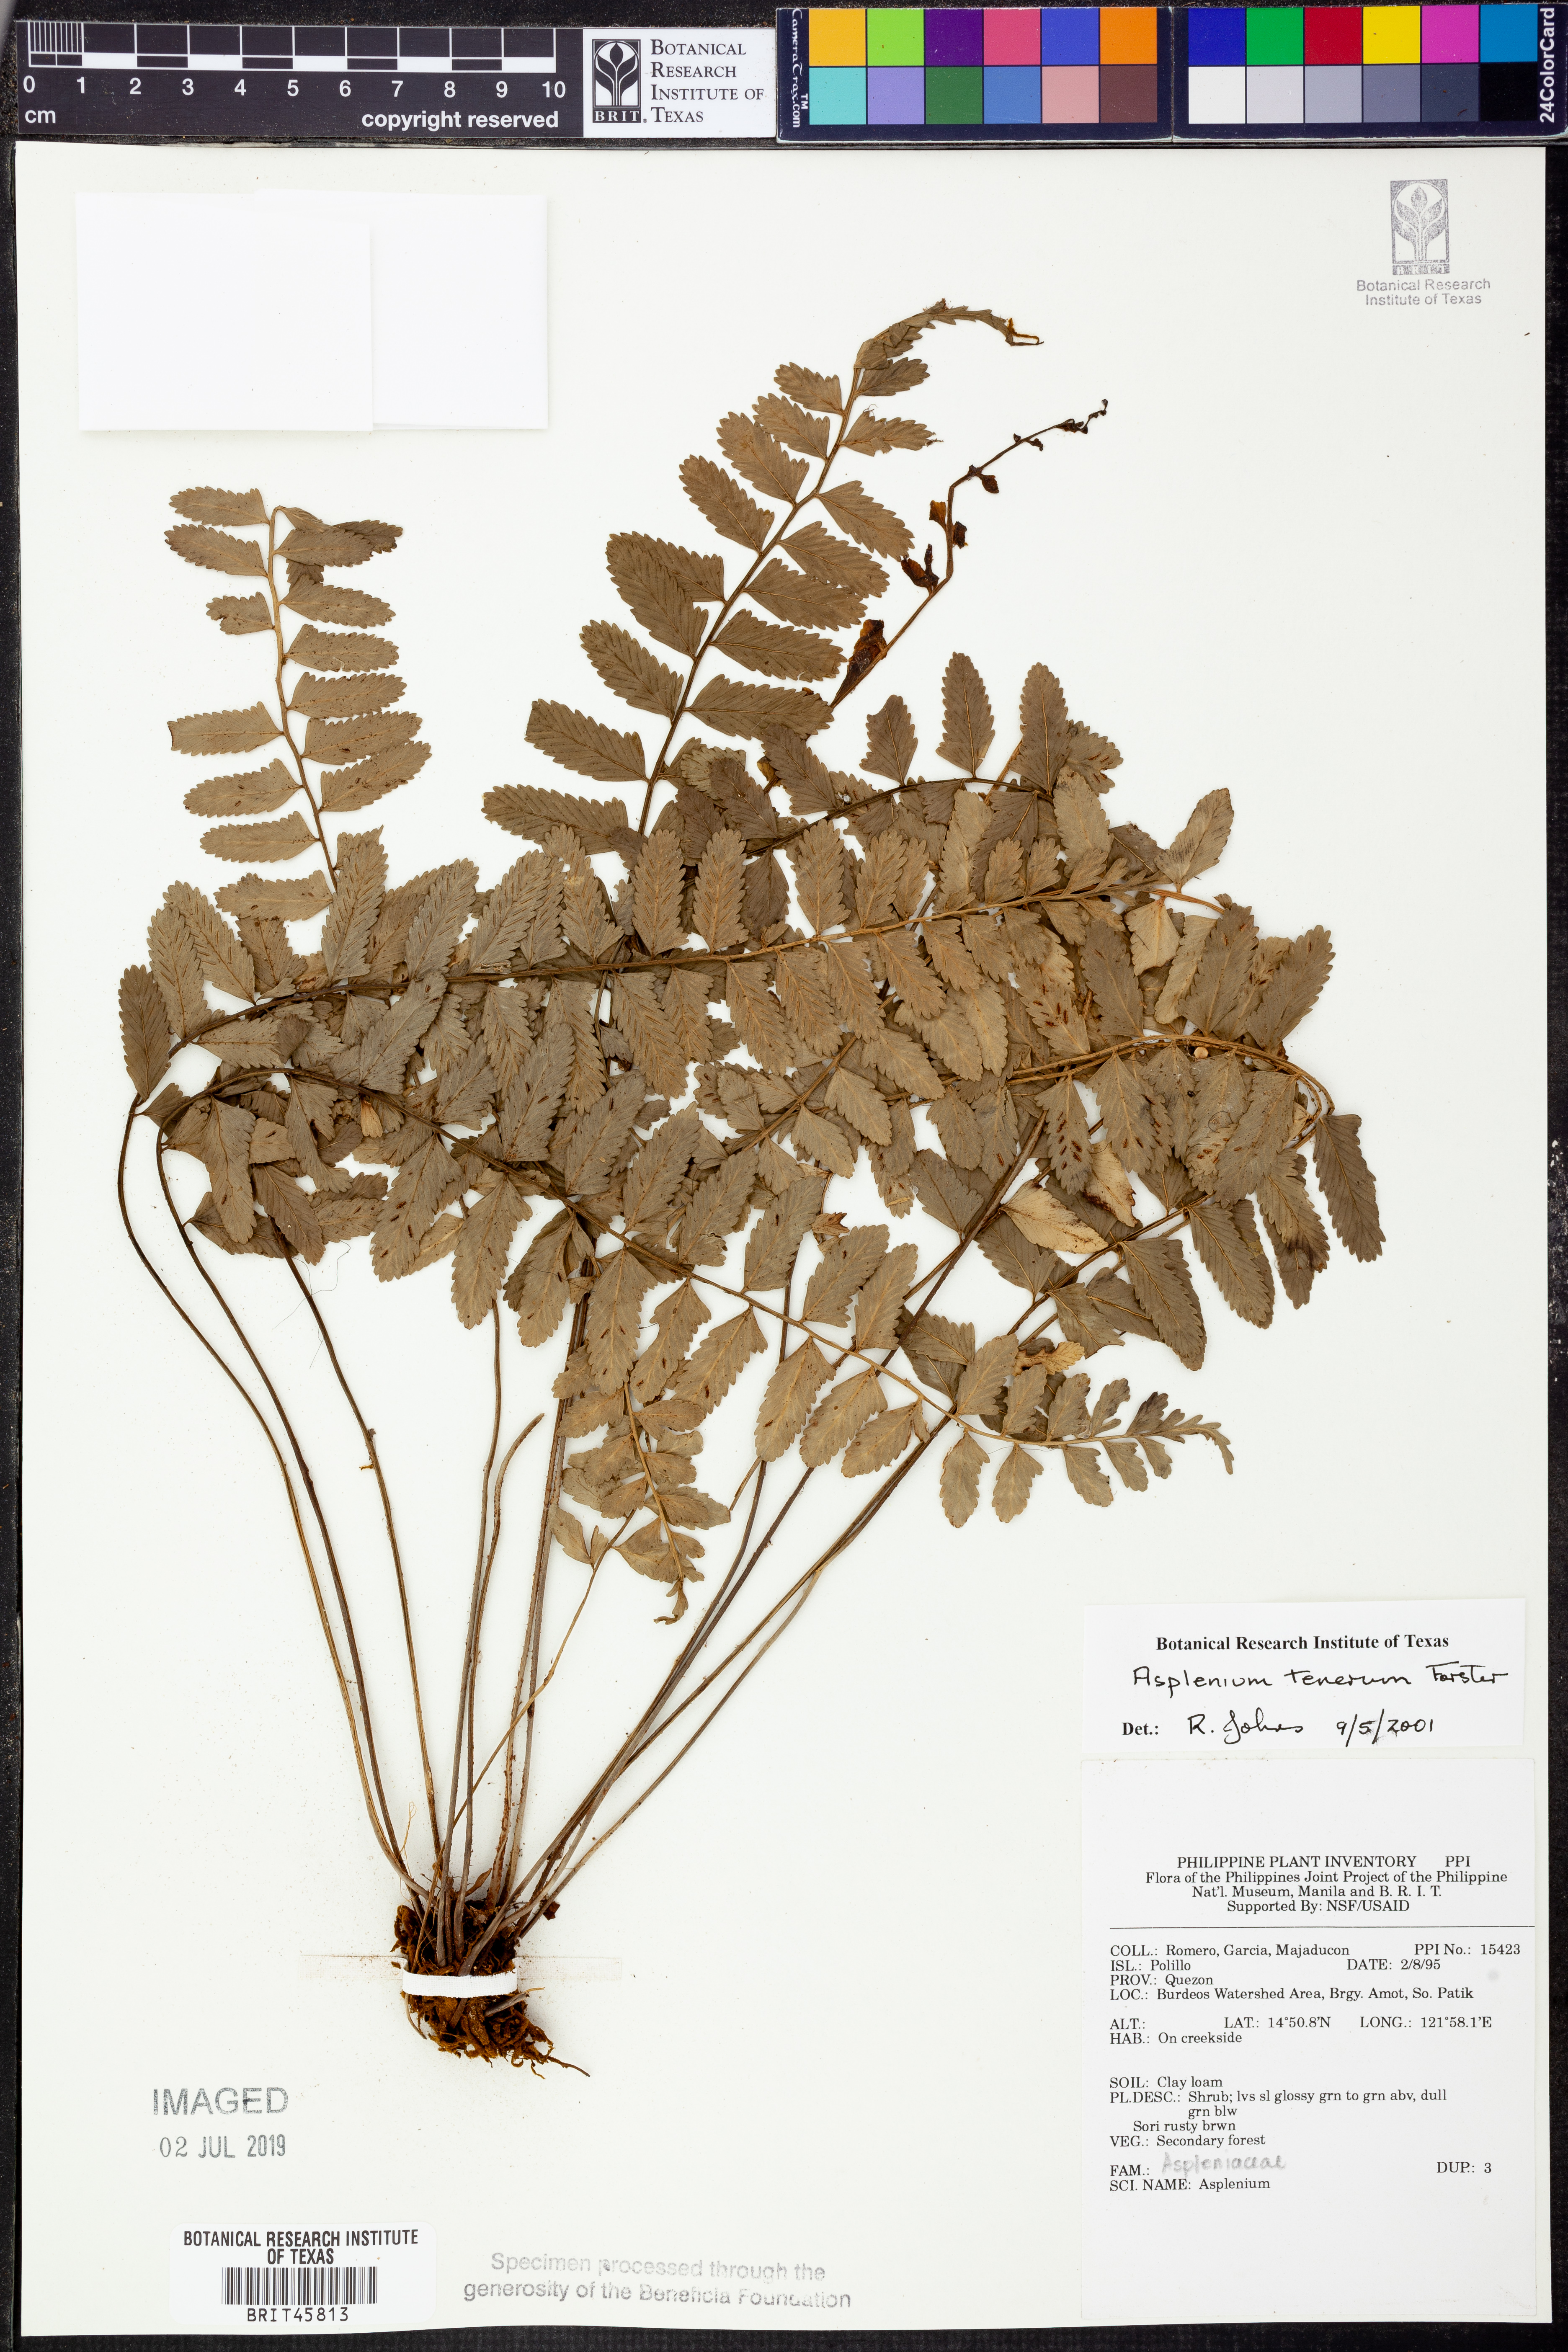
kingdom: Plantae
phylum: Tracheophyta
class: Polypodiopsida
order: Polypodiales
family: Aspleniaceae
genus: Asplenium
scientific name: Asplenium
